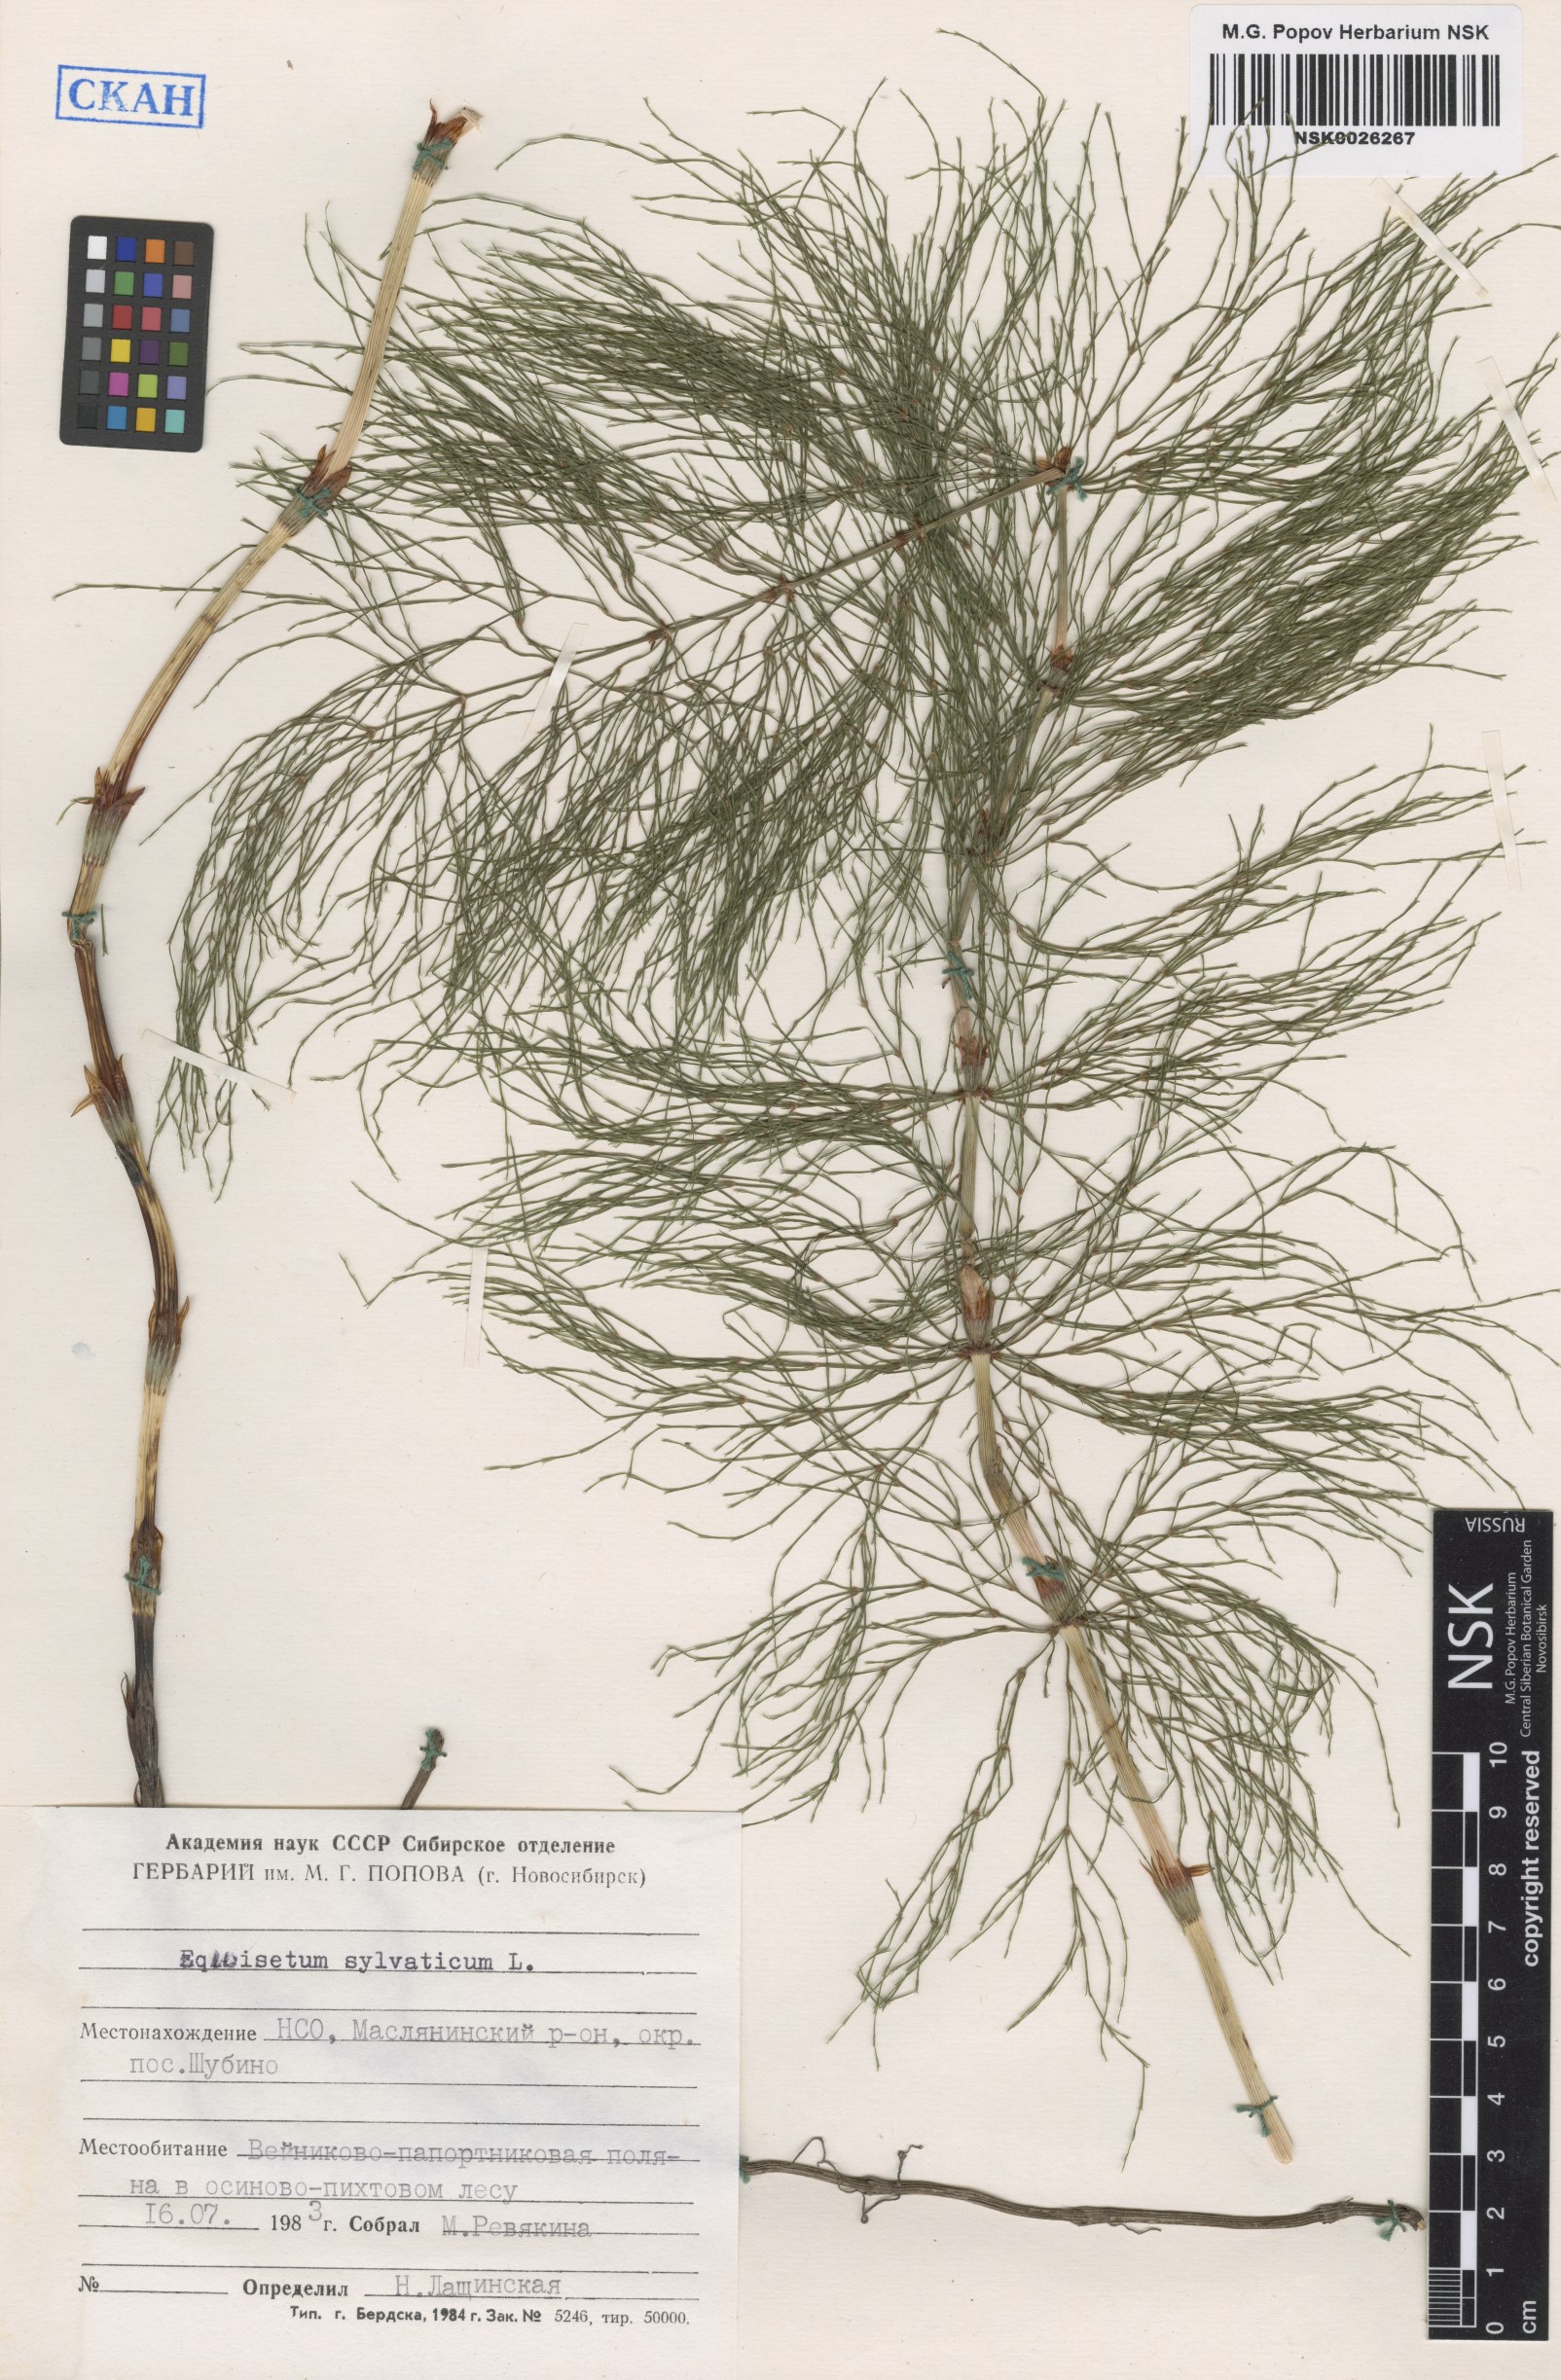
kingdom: Plantae
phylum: Tracheophyta
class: Polypodiopsida
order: Equisetales
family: Equisetaceae
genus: Equisetum
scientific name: Equisetum sylvaticum
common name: Wood horsetail
